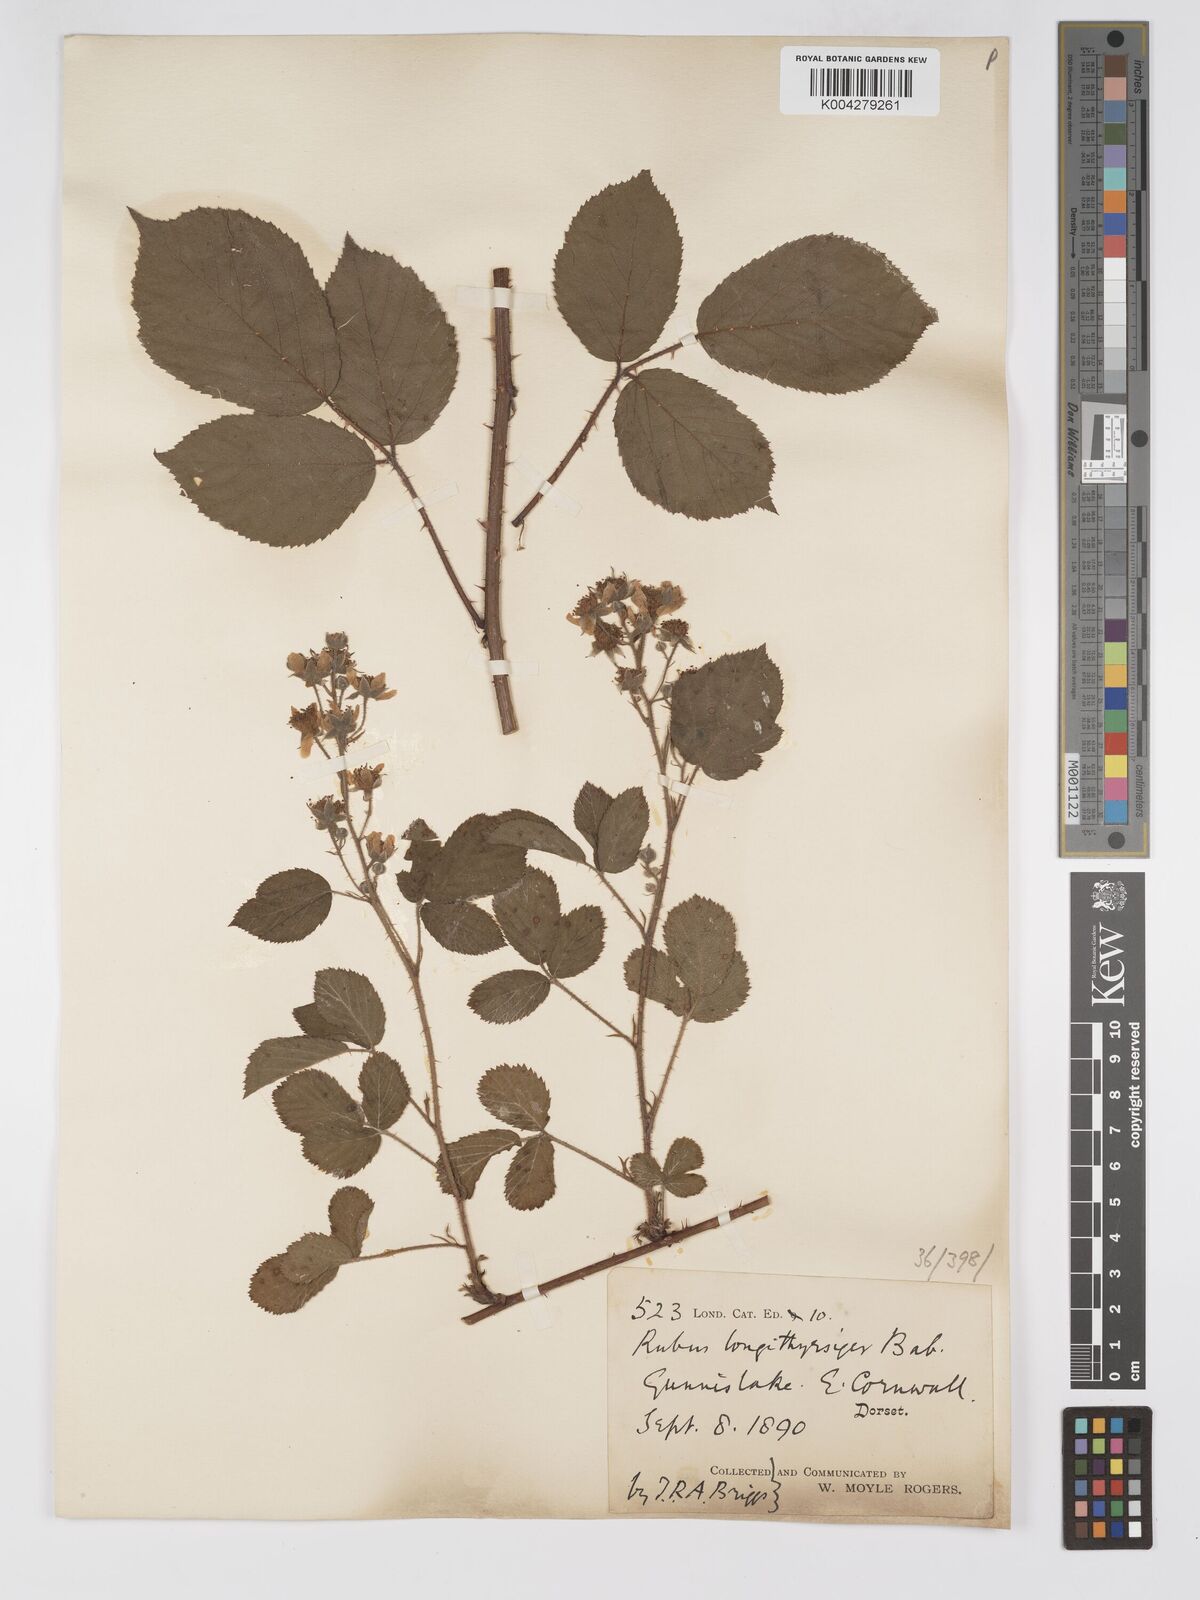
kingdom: Plantae
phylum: Tracheophyta
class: Magnoliopsida
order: Rosales
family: Rosaceae
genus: Rubus
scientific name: Rubus longithyrsiger
